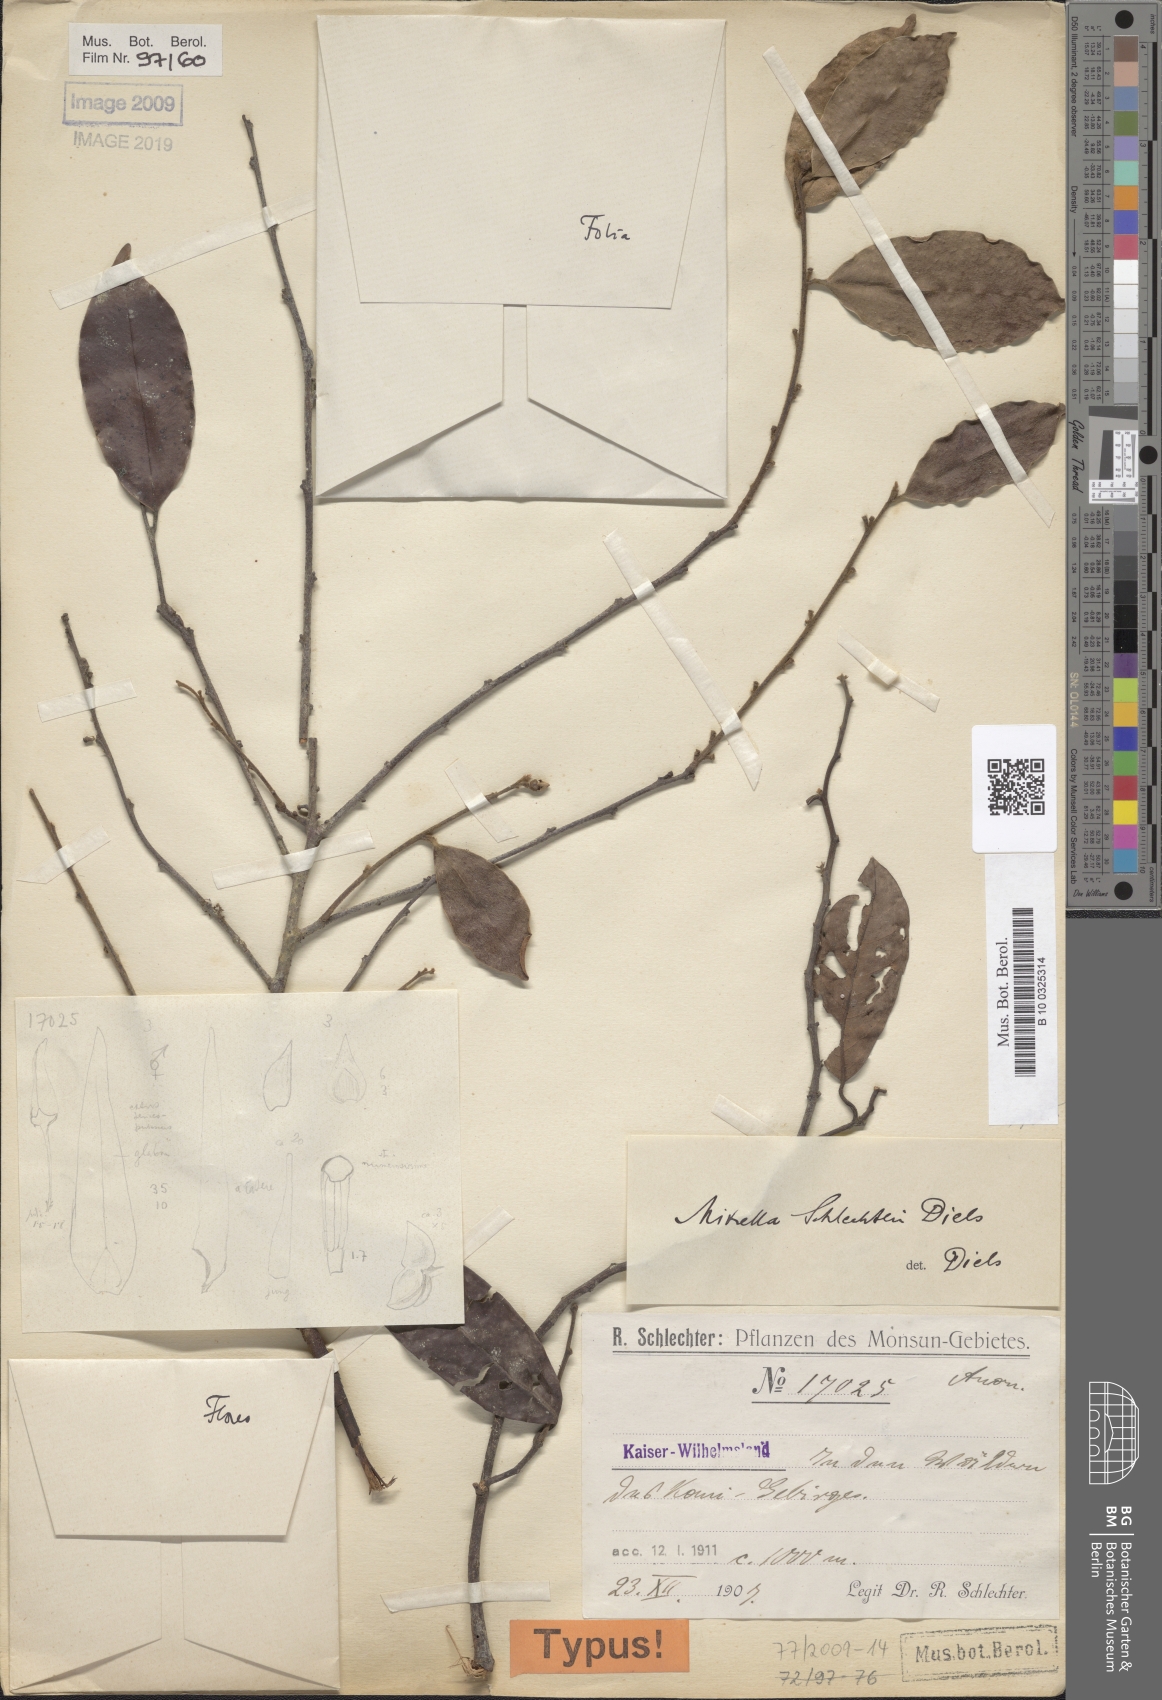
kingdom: Plantae
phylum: Tracheophyta
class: Magnoliopsida
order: Magnoliales
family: Annonaceae
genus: Mitrella
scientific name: Mitrella schlechteri
